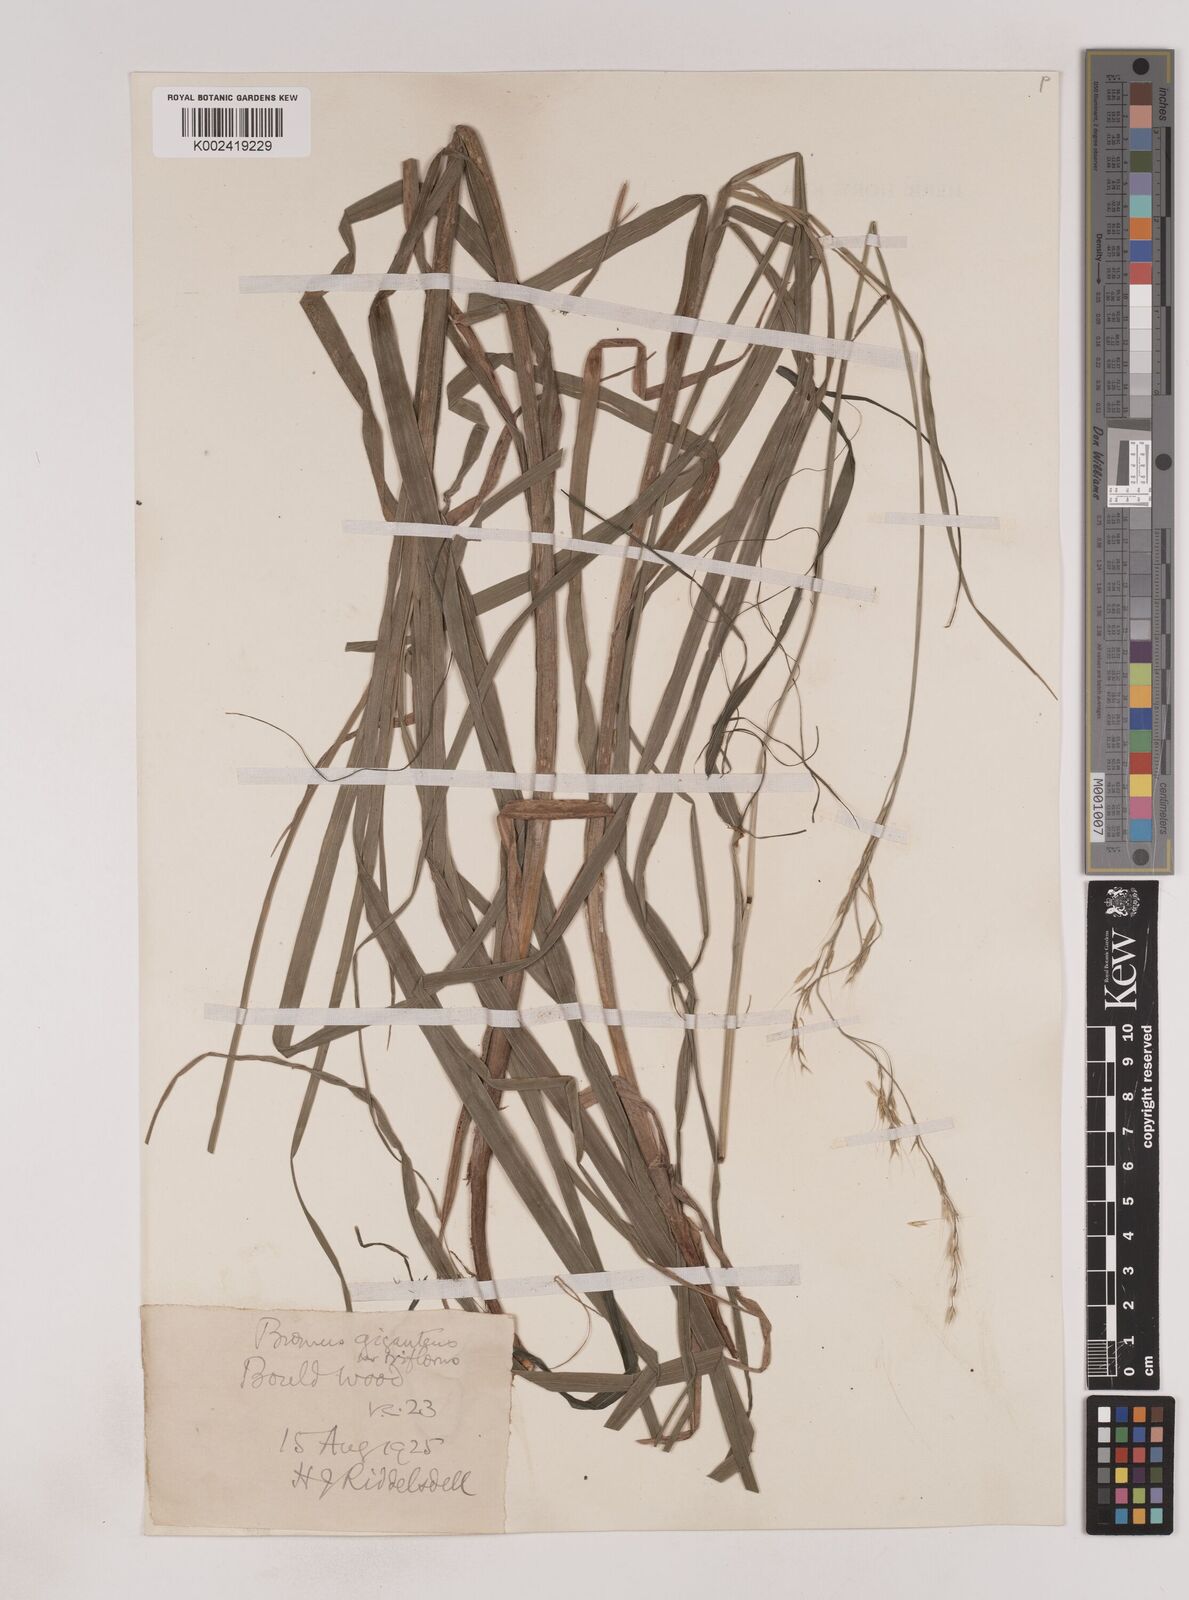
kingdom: Plantae
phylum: Tracheophyta
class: Liliopsida
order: Poales
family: Poaceae
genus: Lolium
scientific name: Lolium giganteum
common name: Giant fescue
